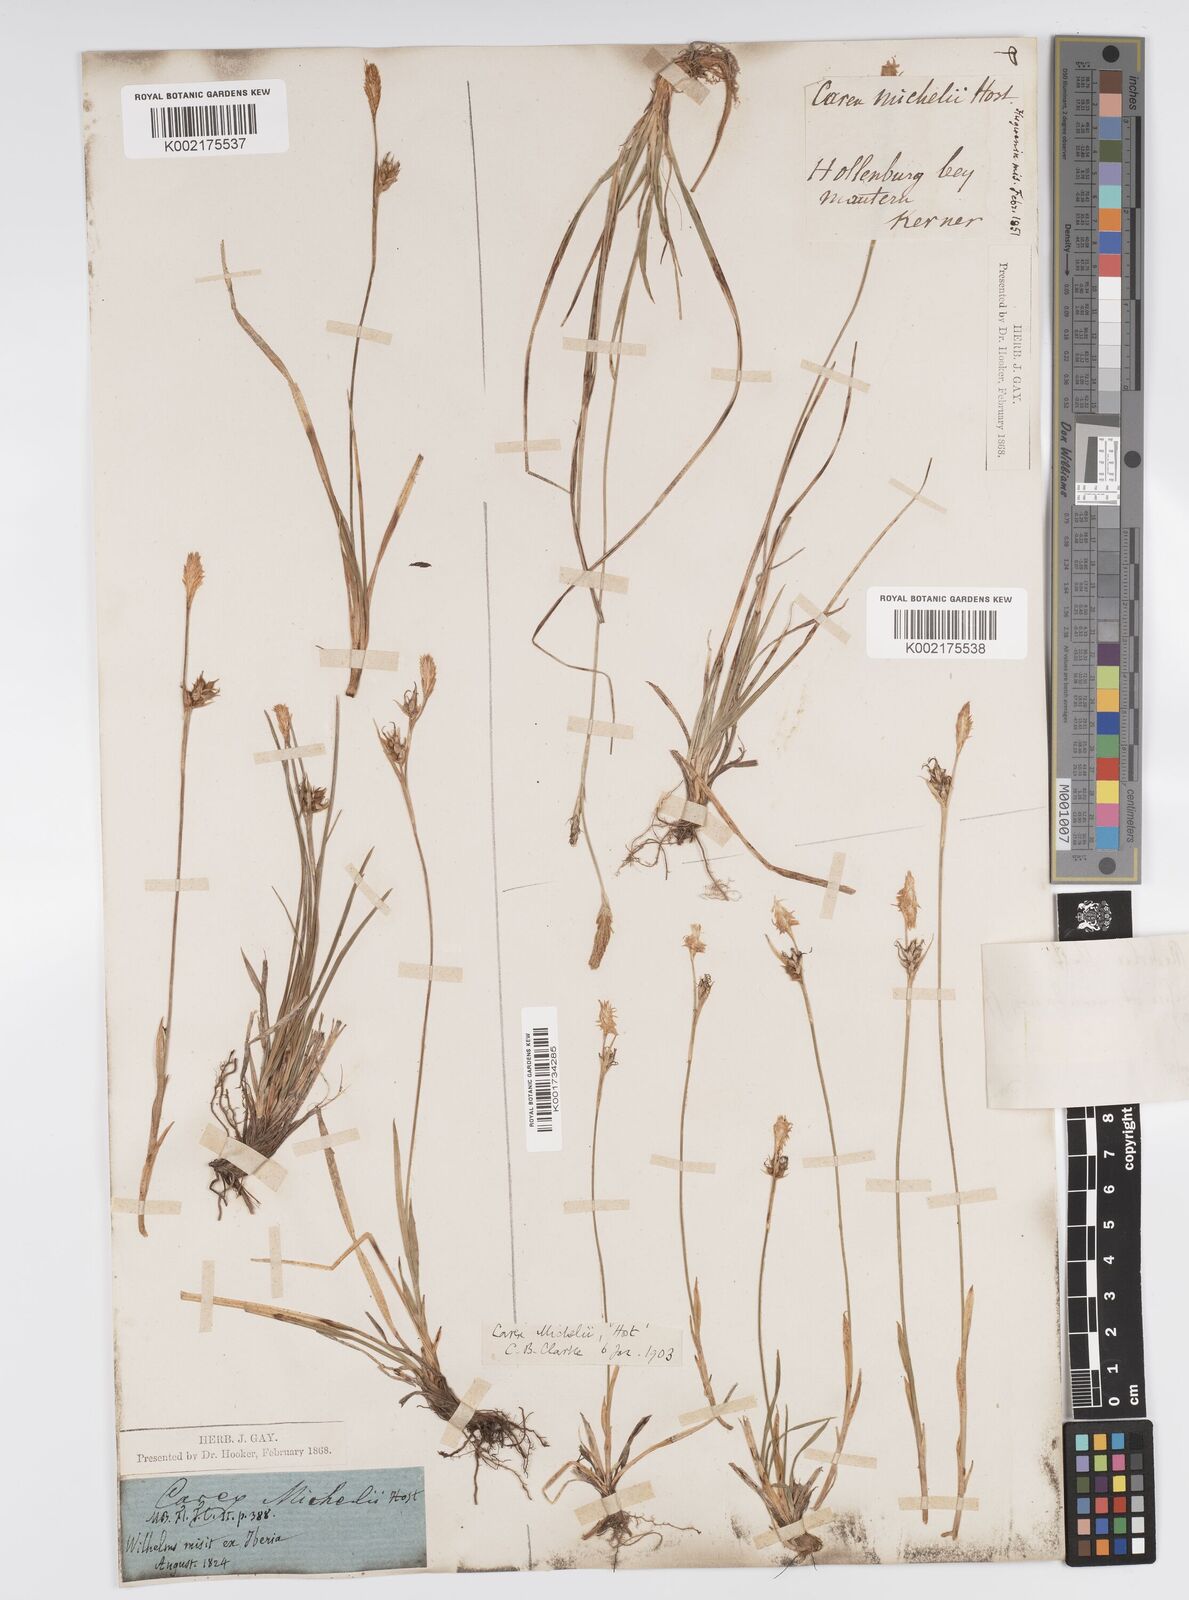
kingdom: Plantae
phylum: Tracheophyta
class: Liliopsida
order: Poales
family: Cyperaceae
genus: Carex
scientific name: Carex michelii
